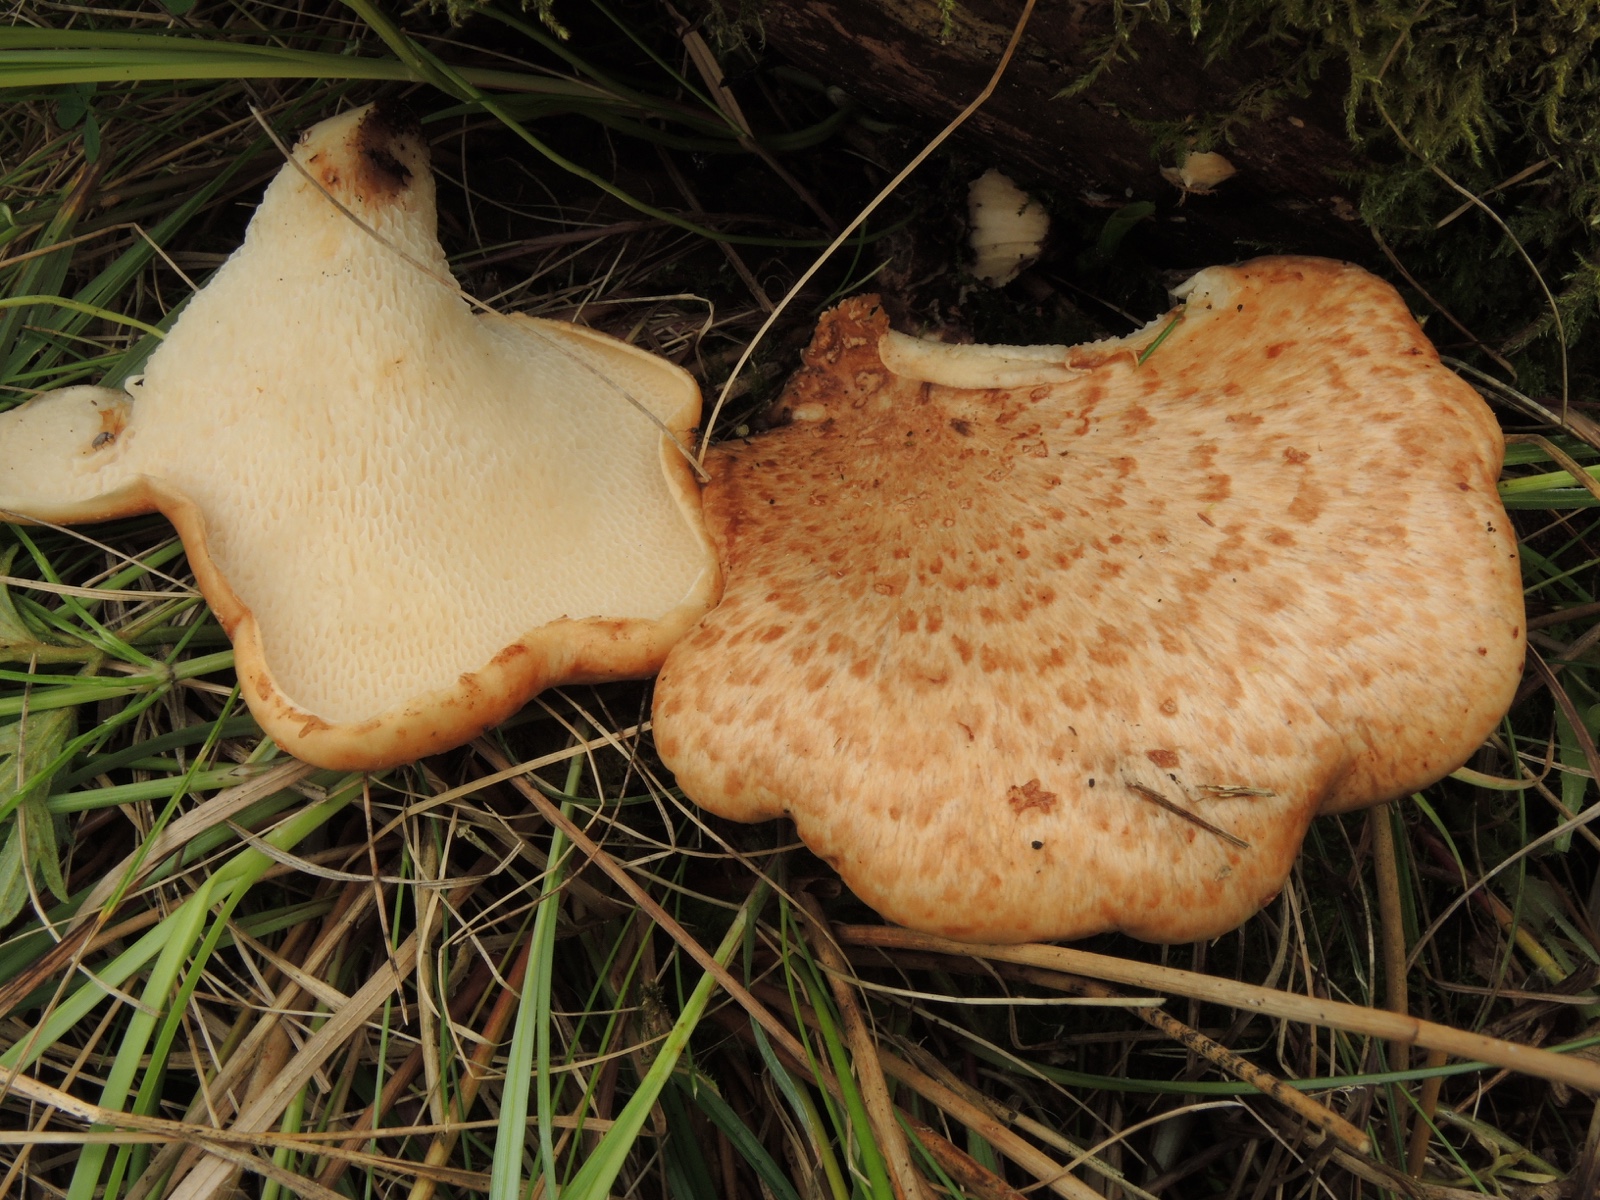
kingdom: Fungi
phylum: Basidiomycota
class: Agaricomycetes
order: Polyporales
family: Polyporaceae
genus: Cerioporus
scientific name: Cerioporus squamosus
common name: skællet stilkporesvamp
